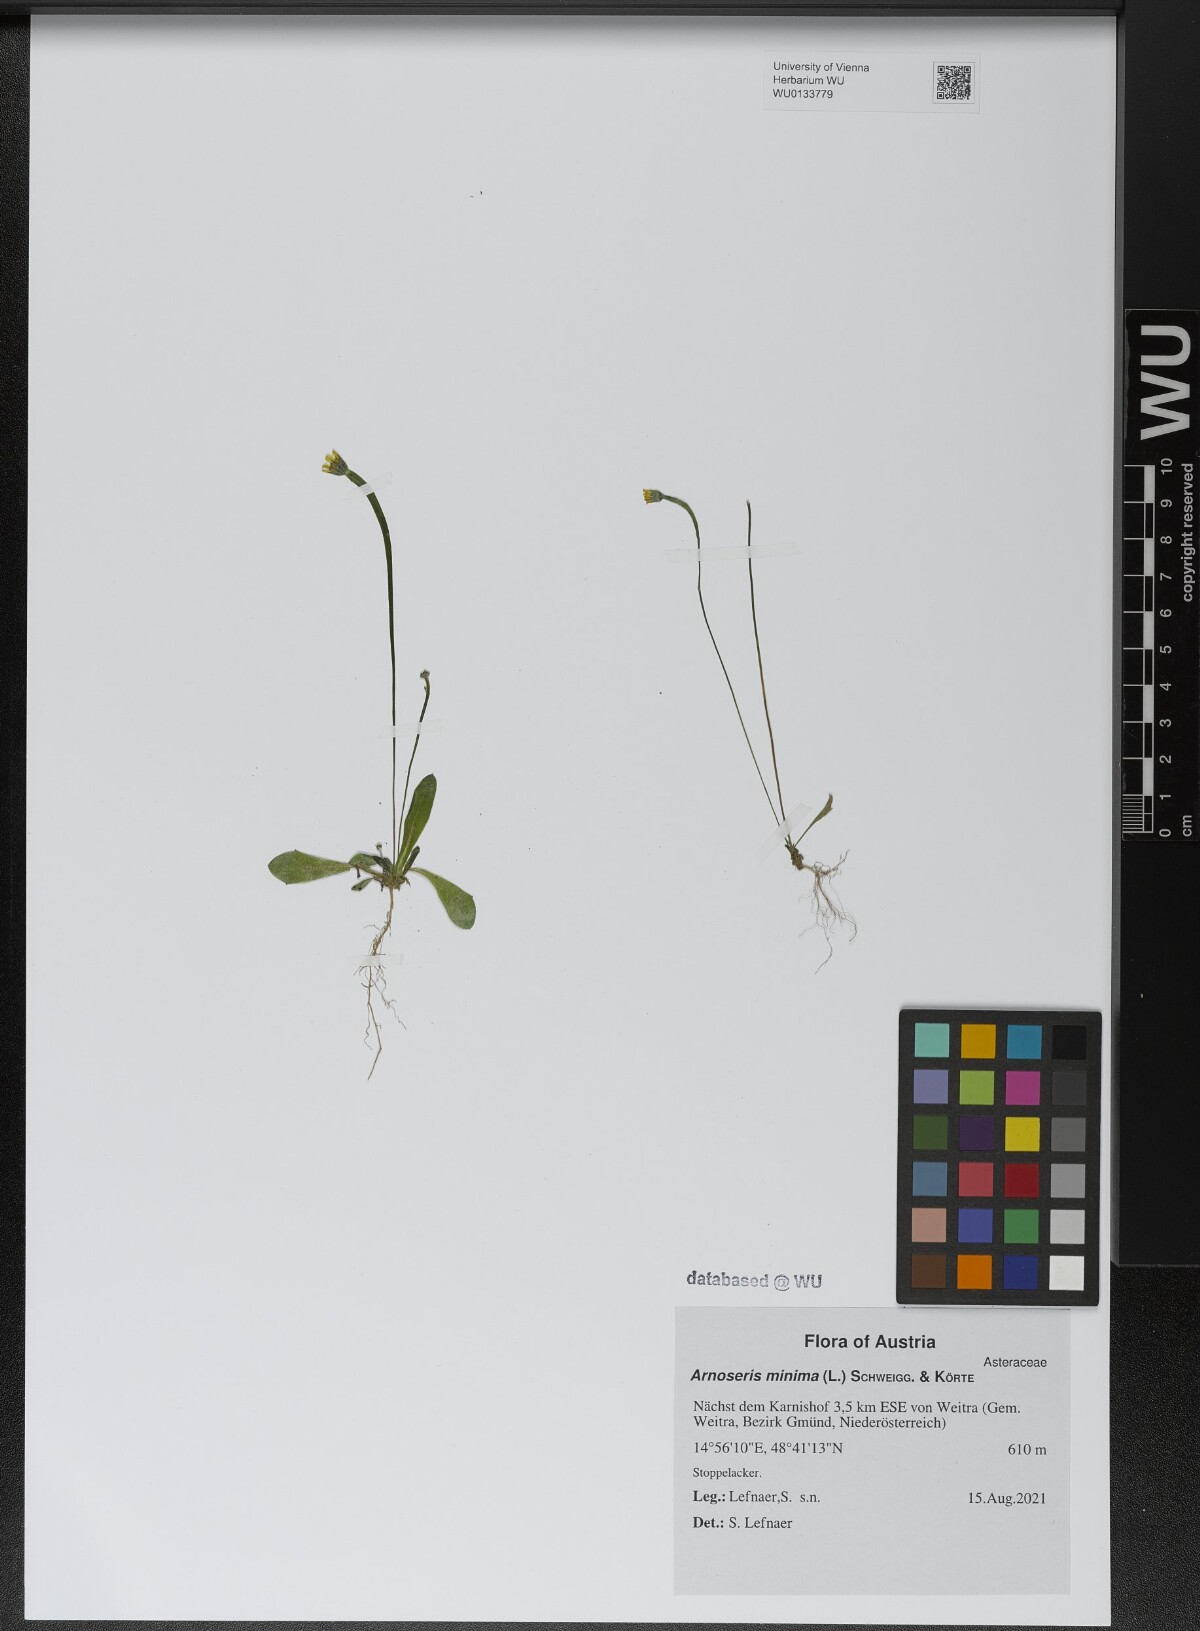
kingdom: Plantae
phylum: Tracheophyta
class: Magnoliopsida
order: Asterales
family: Asteraceae
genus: Arnoseris
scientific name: Arnoseris minima
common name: Lamb's succory
